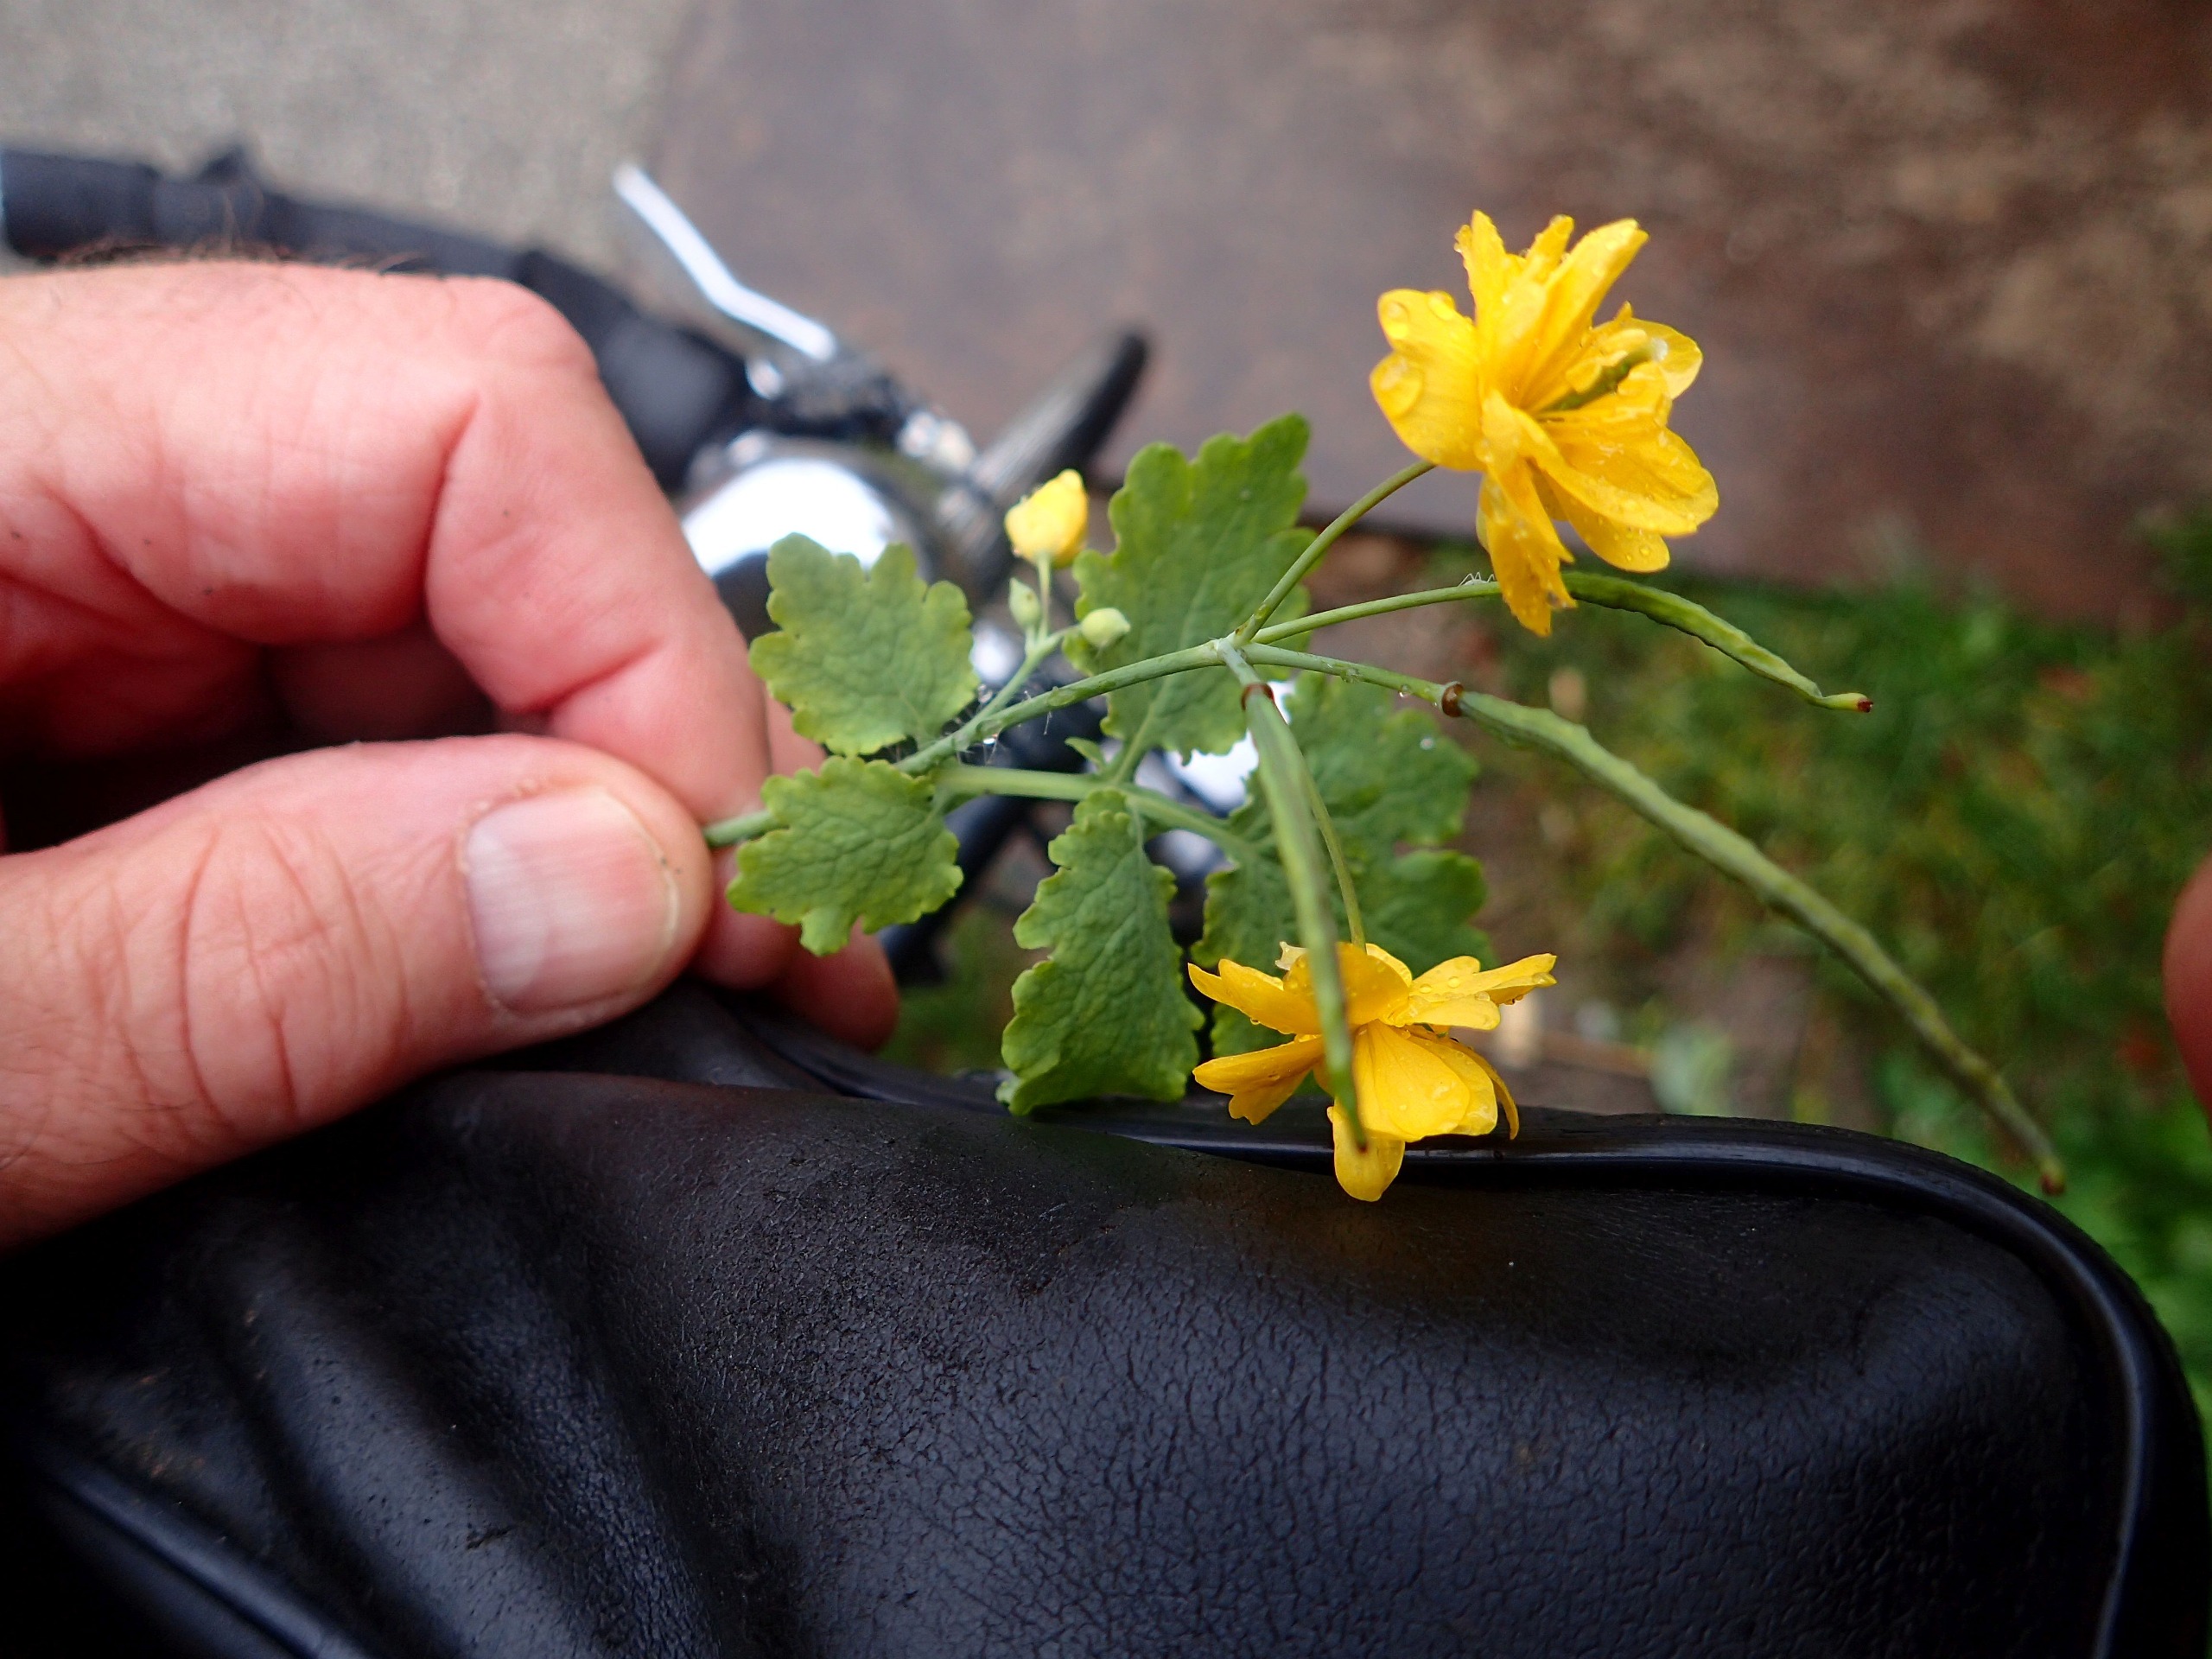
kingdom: Plantae
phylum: Tracheophyta
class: Magnoliopsida
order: Ranunculales
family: Papaveraceae
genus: Chelidonium
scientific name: Chelidonium majus
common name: Svaleurt
